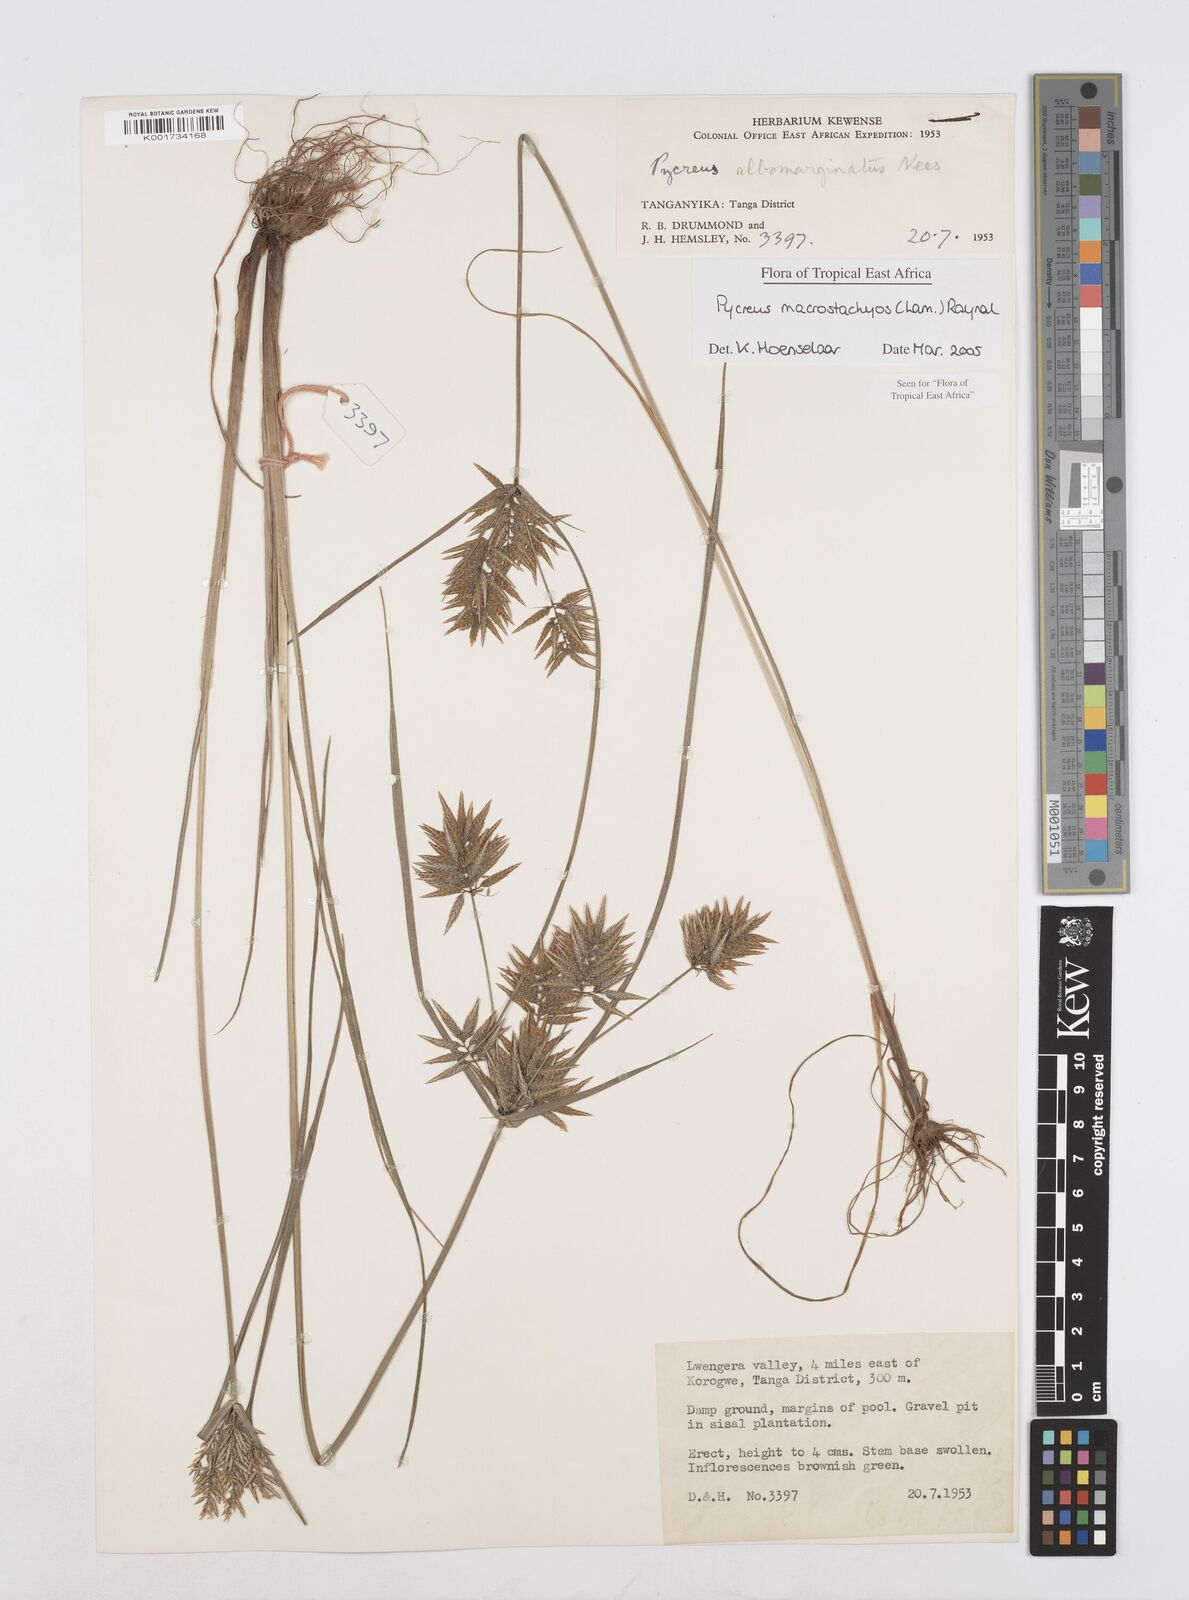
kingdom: Plantae
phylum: Tracheophyta
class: Liliopsida
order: Poales
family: Cyperaceae
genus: Cyperus
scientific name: Cyperus macrostachyos
